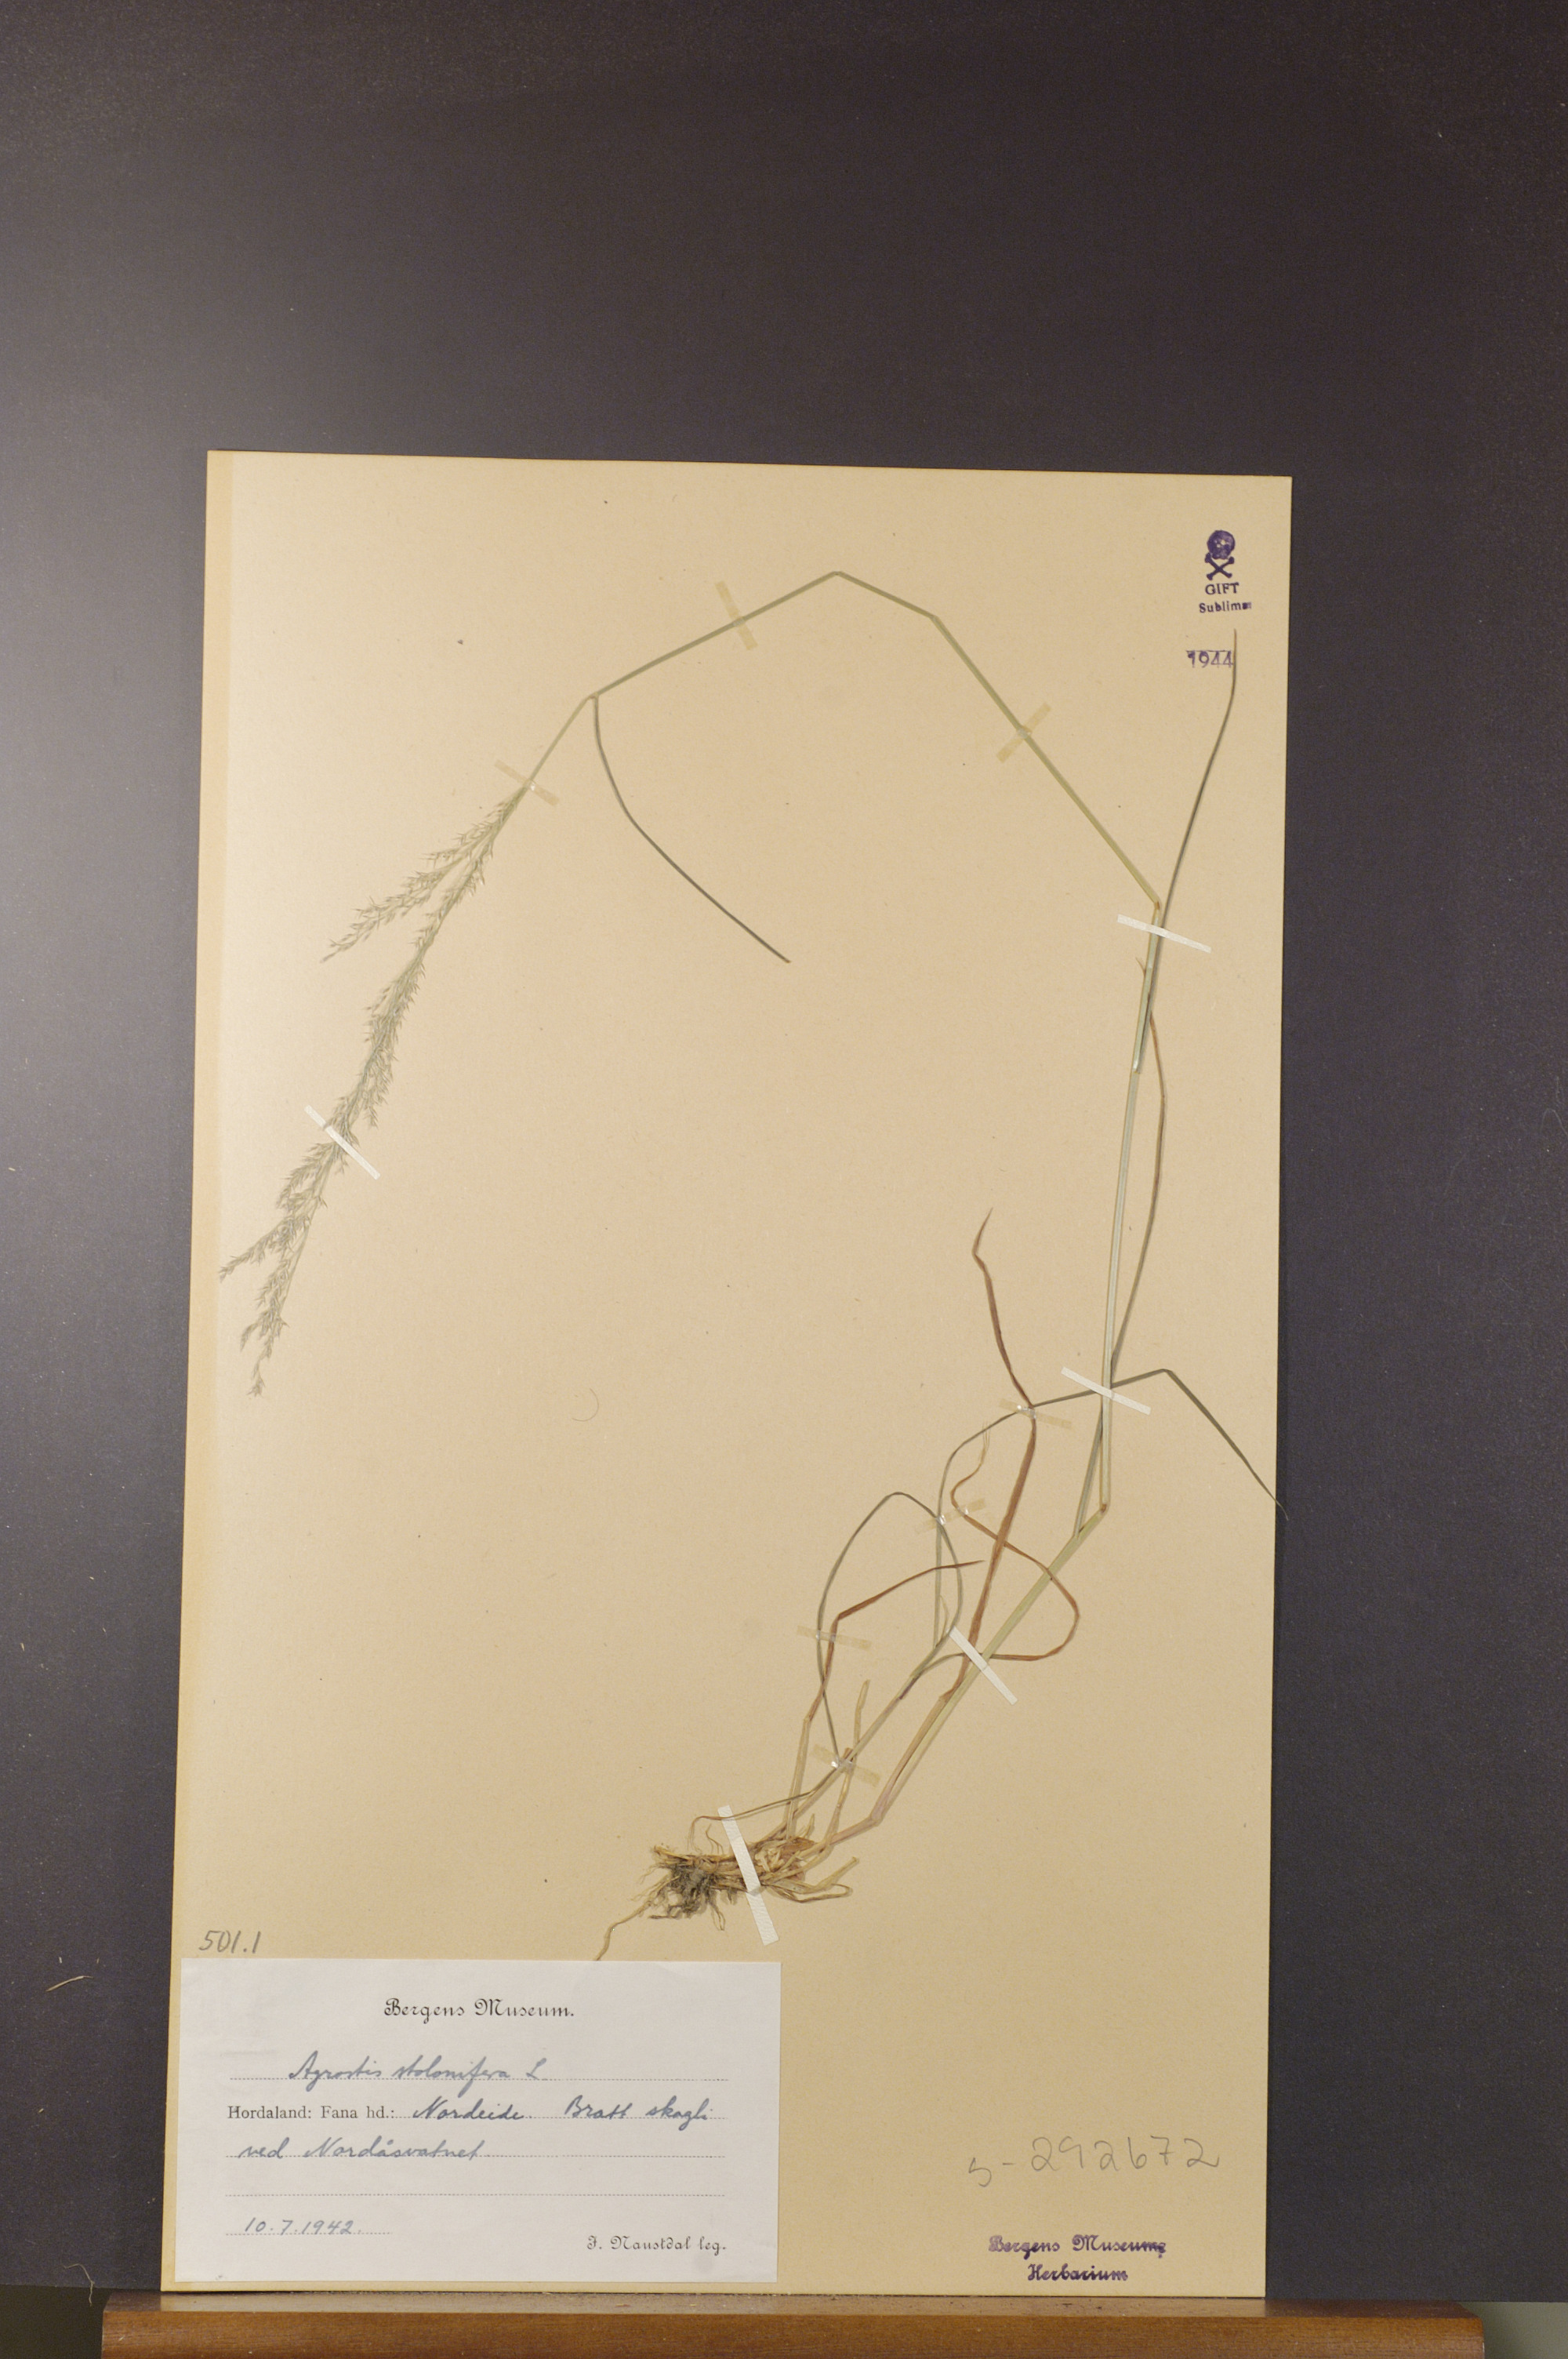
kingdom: Plantae
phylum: Tracheophyta
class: Liliopsida
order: Poales
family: Poaceae
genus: Agrostis
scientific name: Agrostis stolonifera
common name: Creeping bentgrass
